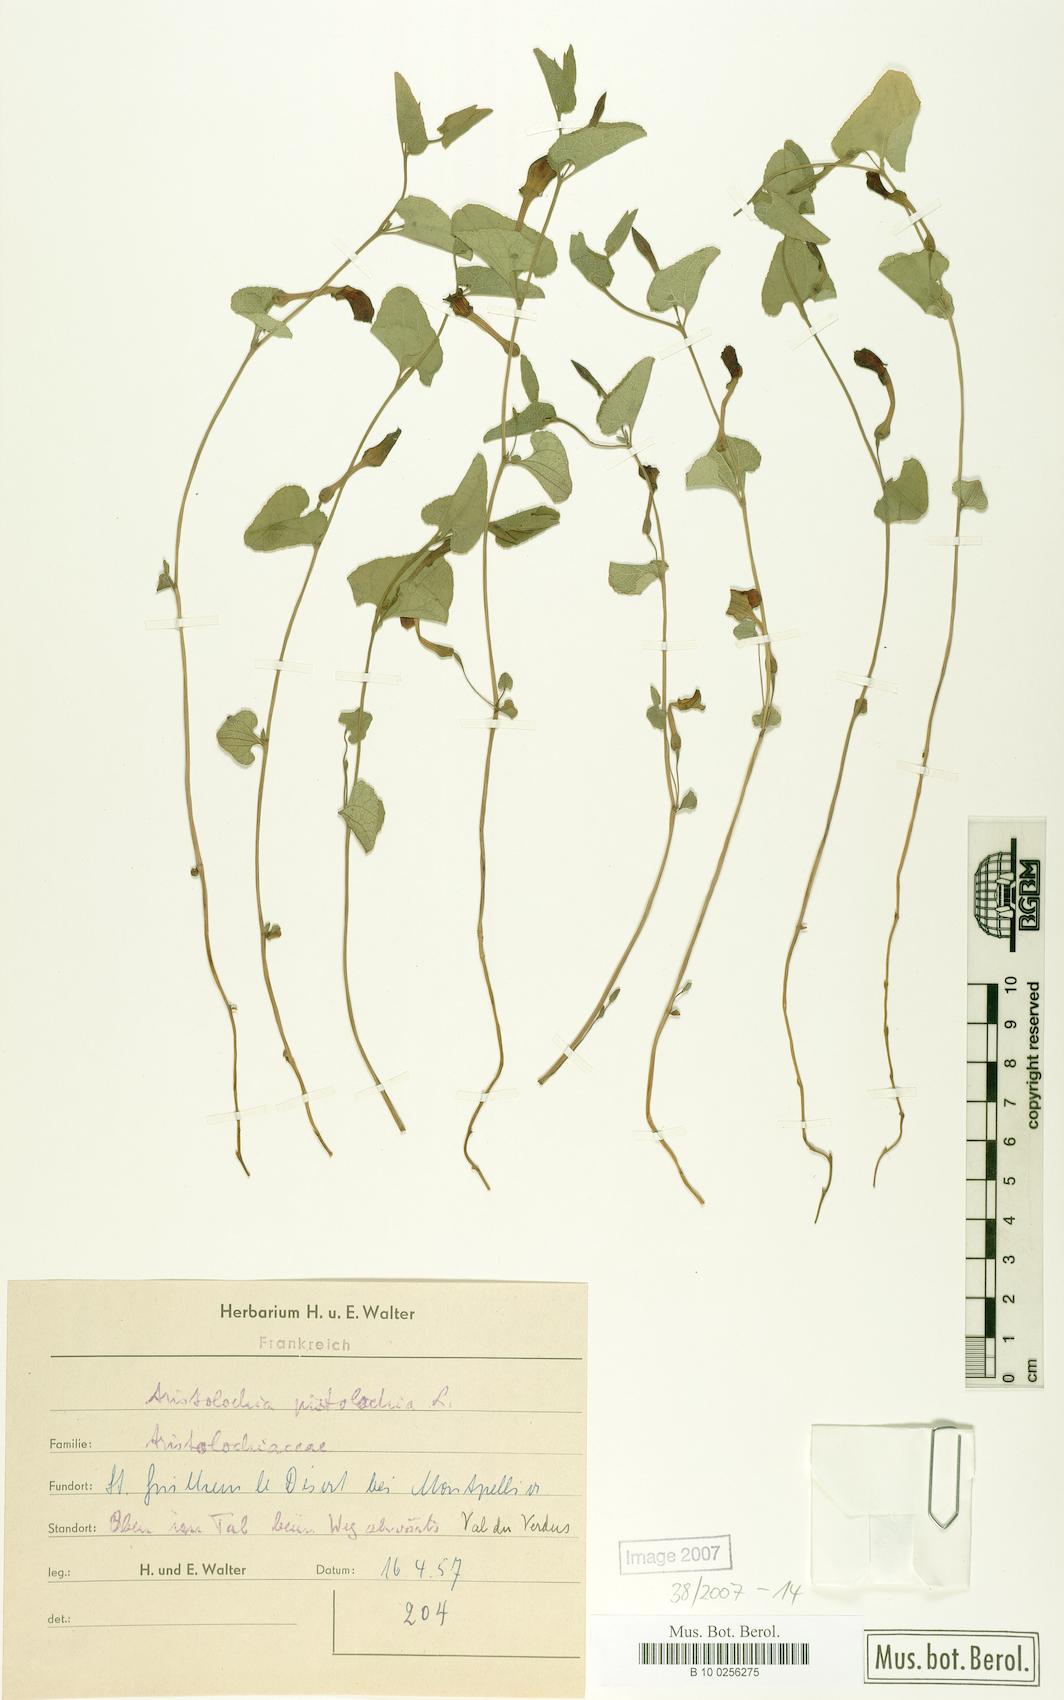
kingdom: Plantae
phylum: Tracheophyta
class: Magnoliopsida
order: Piperales
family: Aristolochiaceae
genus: Aristolochia
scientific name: Aristolochia pistolochia
